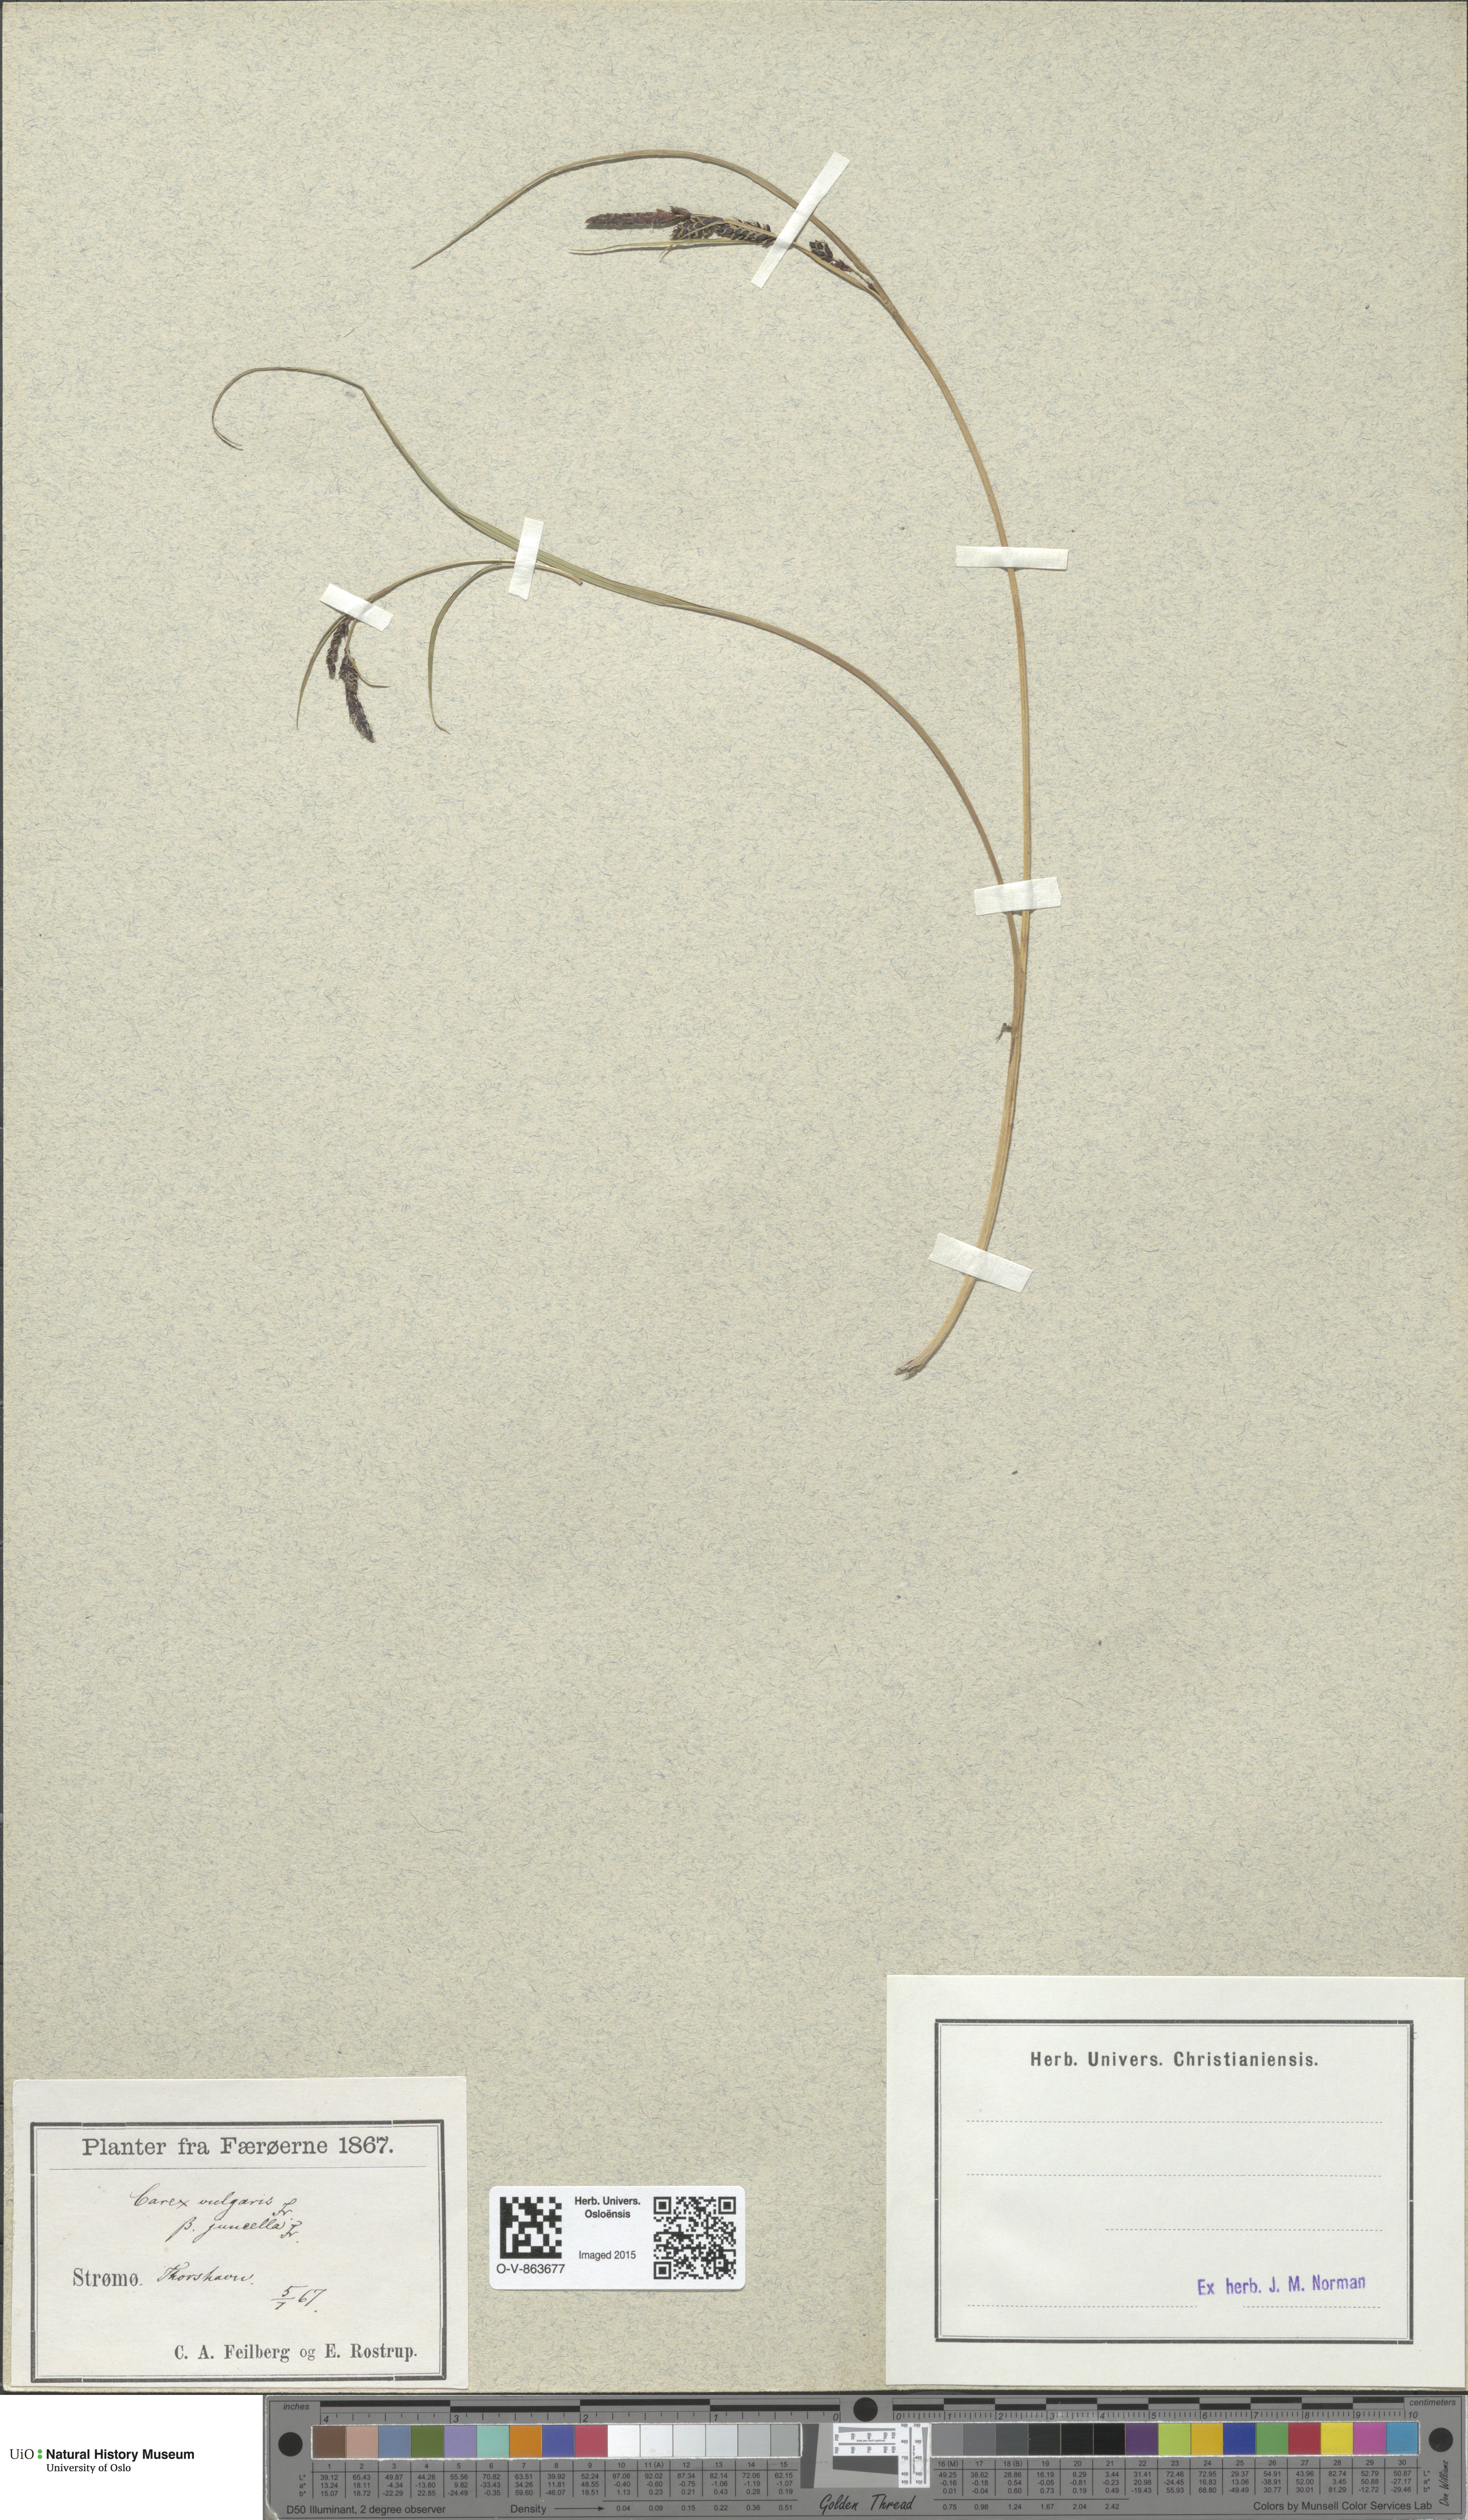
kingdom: Plantae
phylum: Tracheophyta
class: Liliopsida
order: Poales
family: Cyperaceae
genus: Carex
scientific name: Carex nigra
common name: Common sedge
